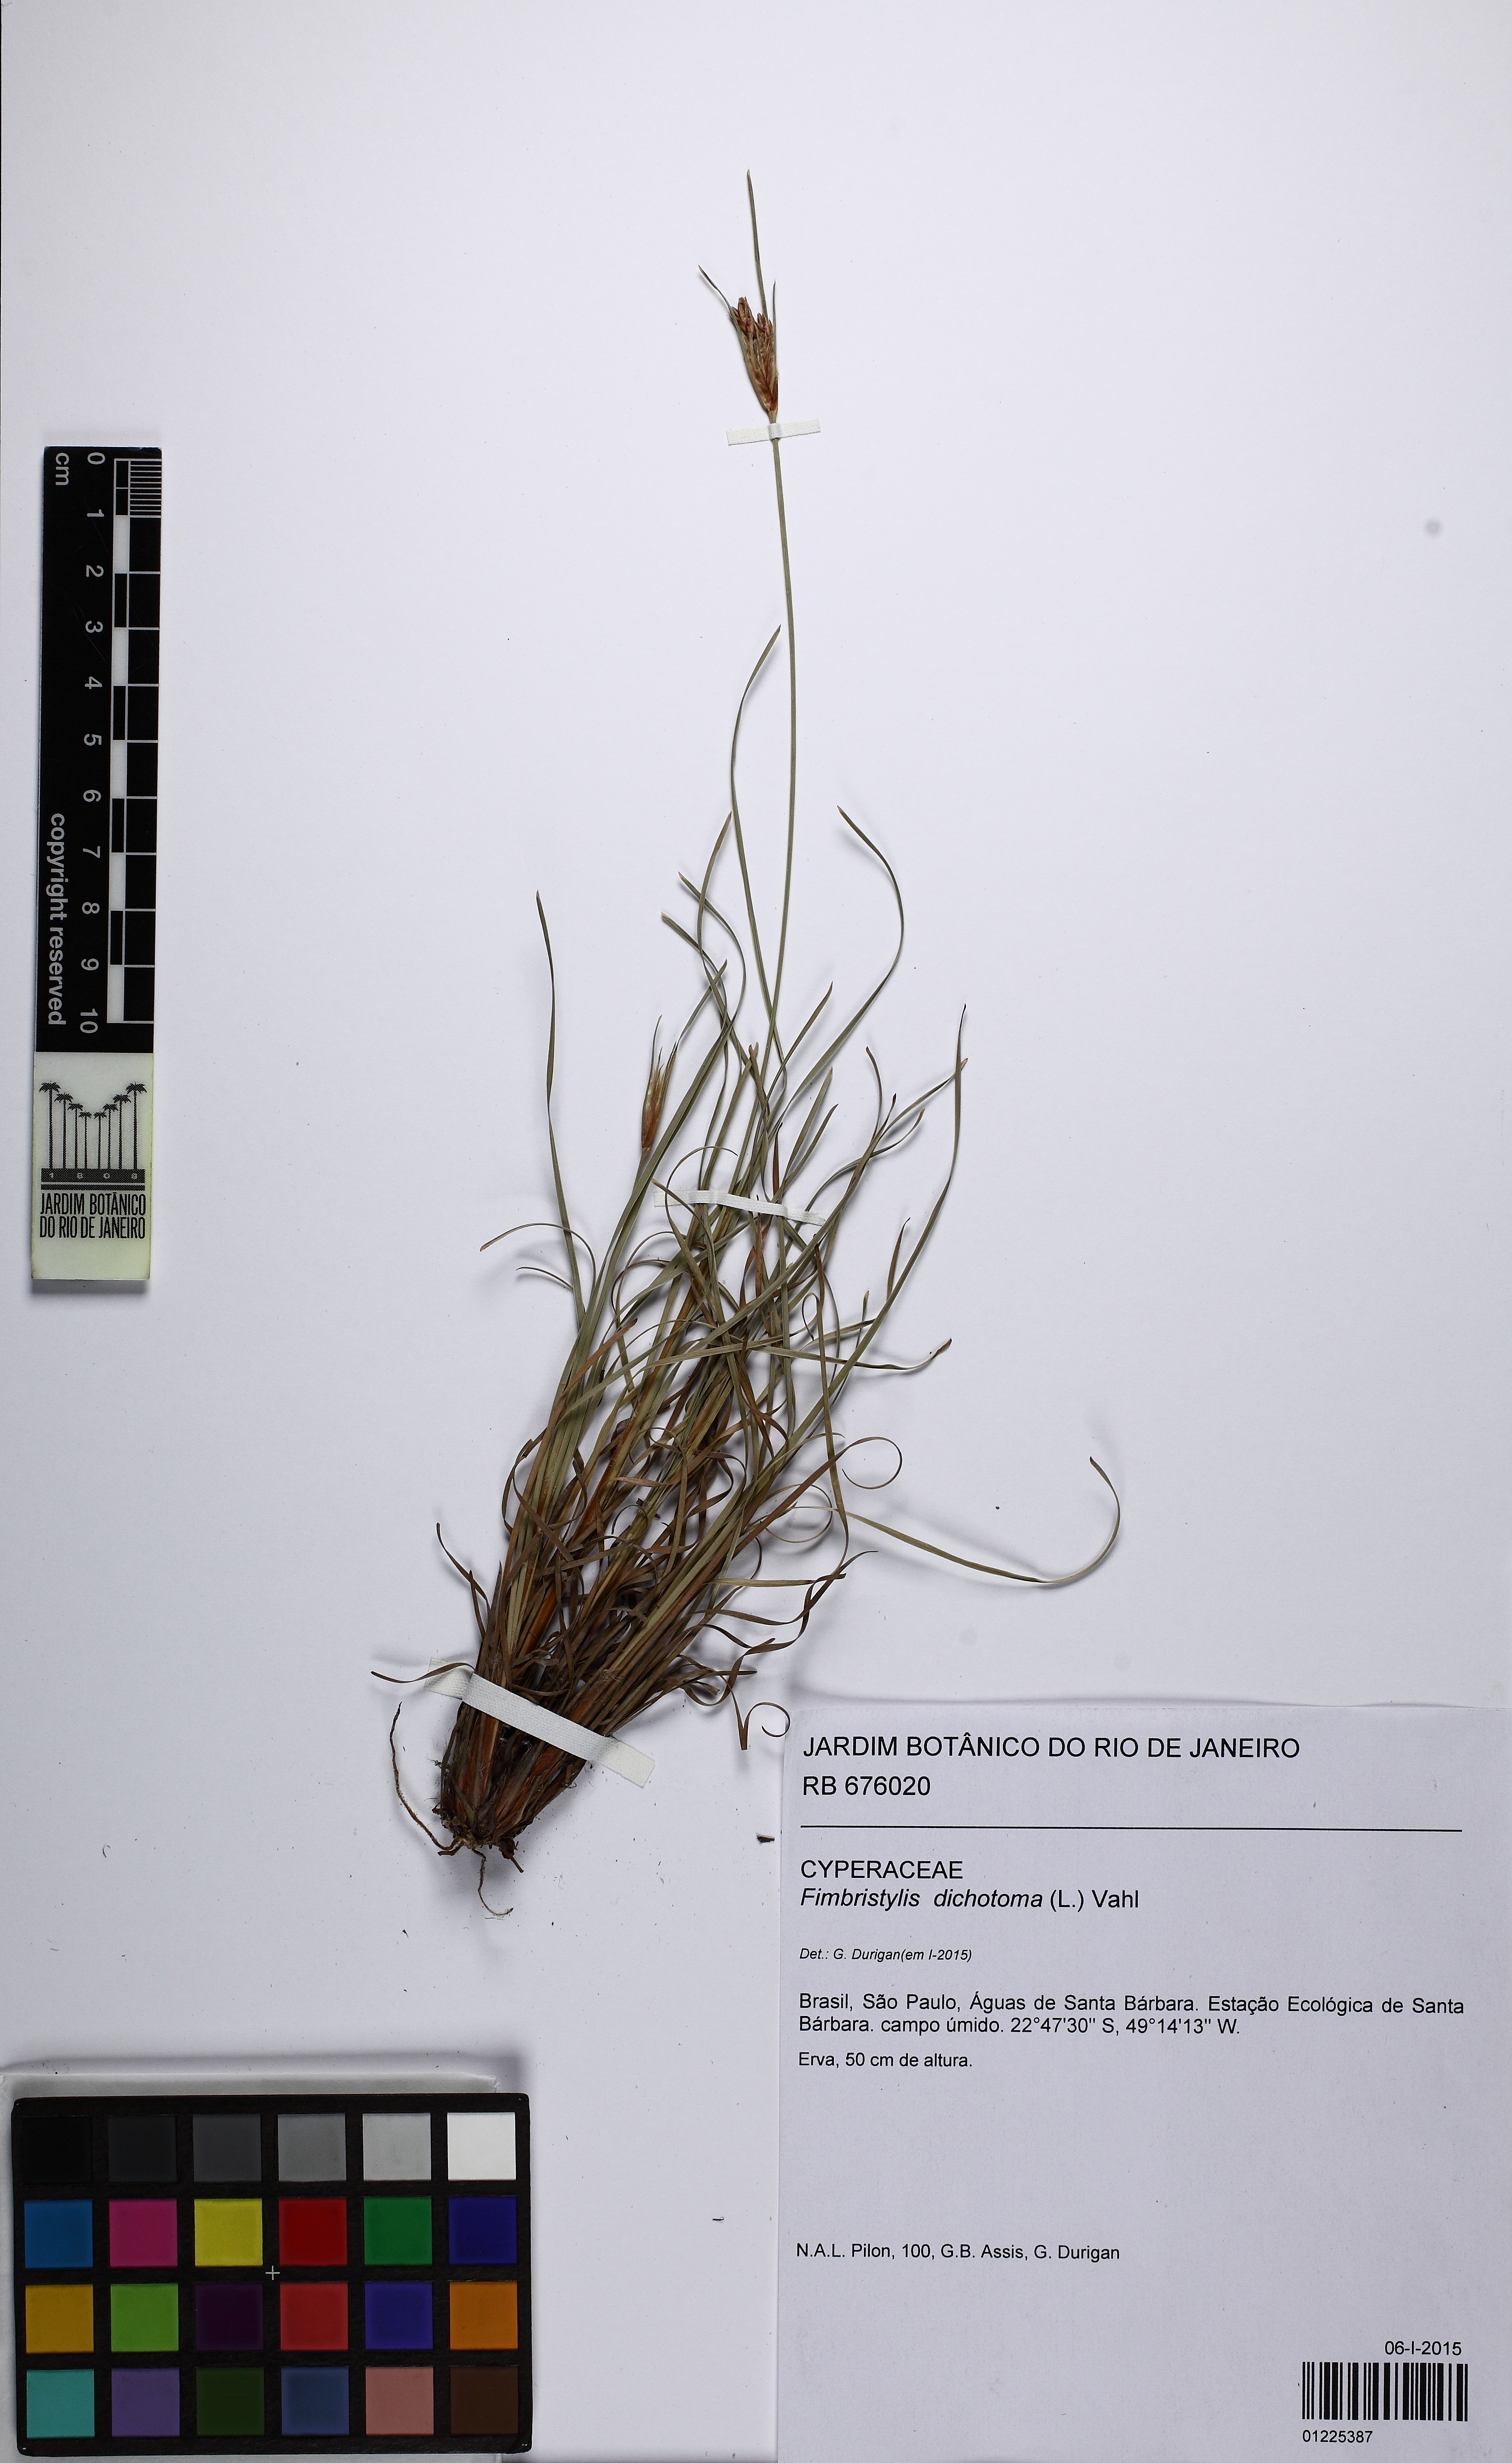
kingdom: Plantae
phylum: Tracheophyta
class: Liliopsida
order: Poales
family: Cyperaceae
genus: Fimbristylis
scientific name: Fimbristylis dichotoma
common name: Forked fimbry
